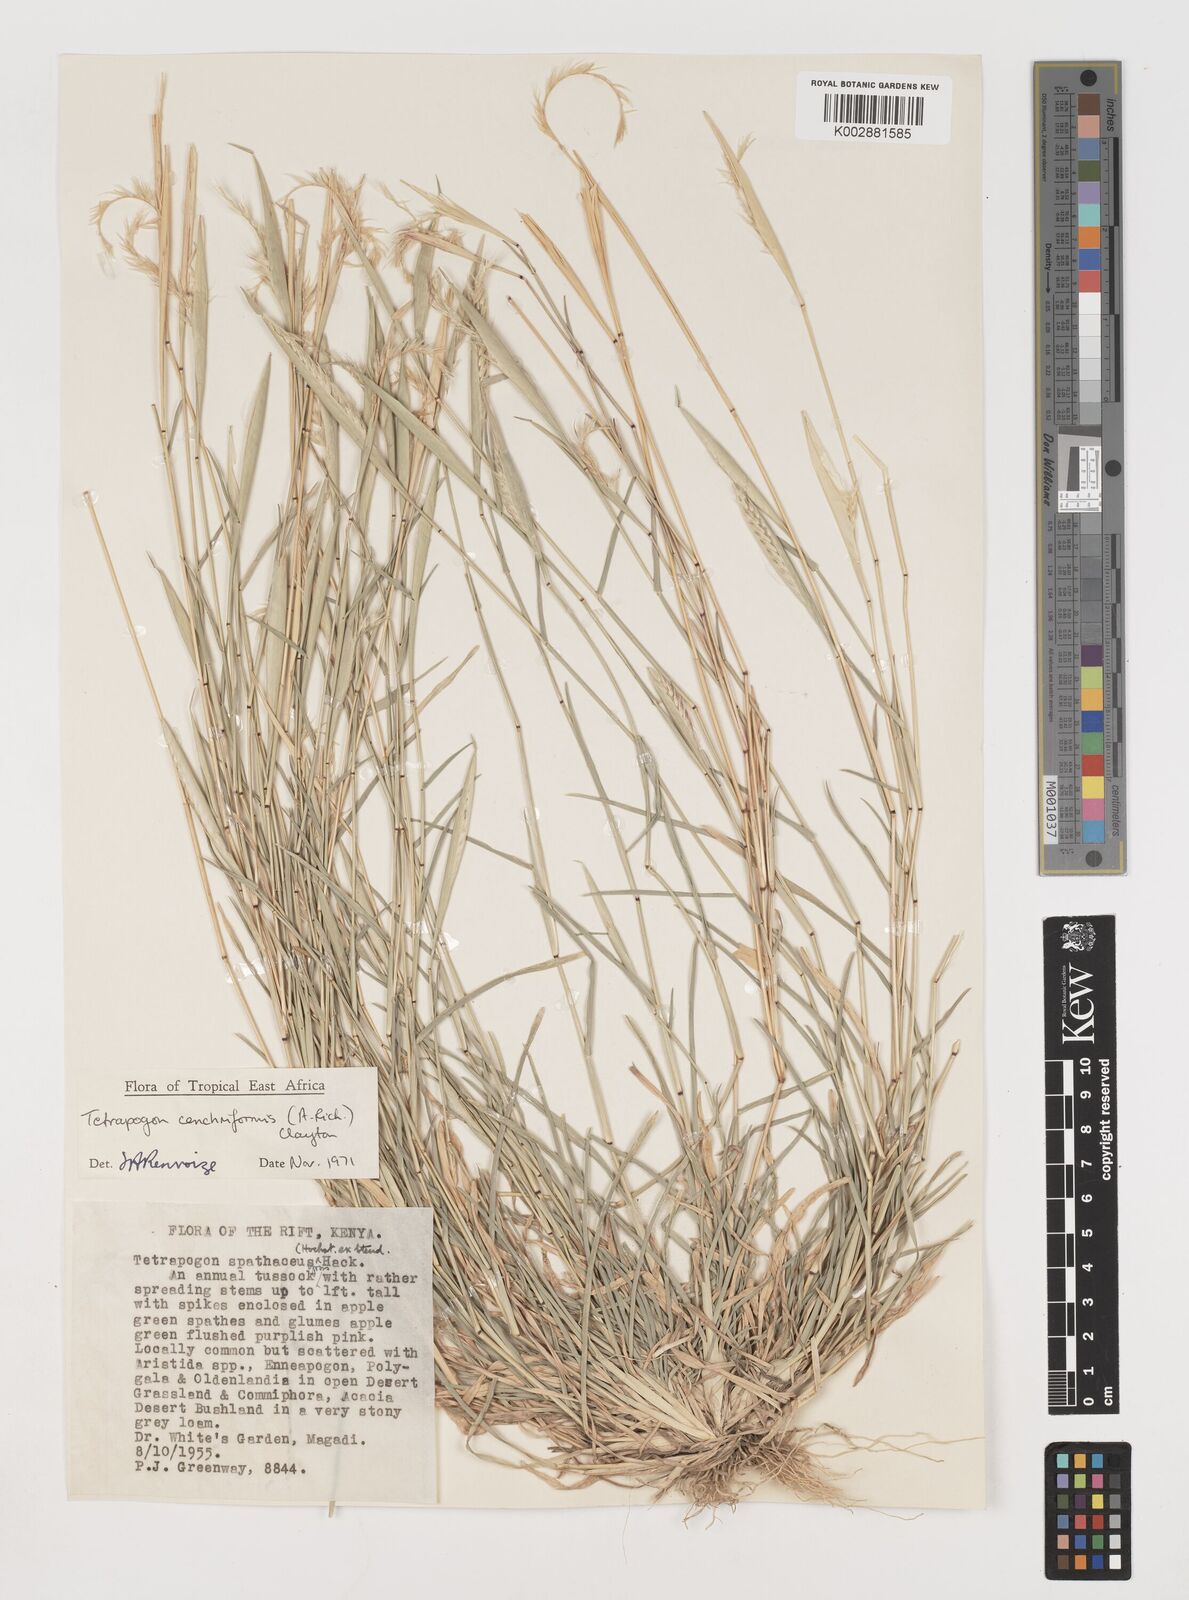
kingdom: Plantae
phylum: Tracheophyta
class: Liliopsida
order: Poales
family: Poaceae
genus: Tetrapogon
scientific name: Tetrapogon cenchriformis
